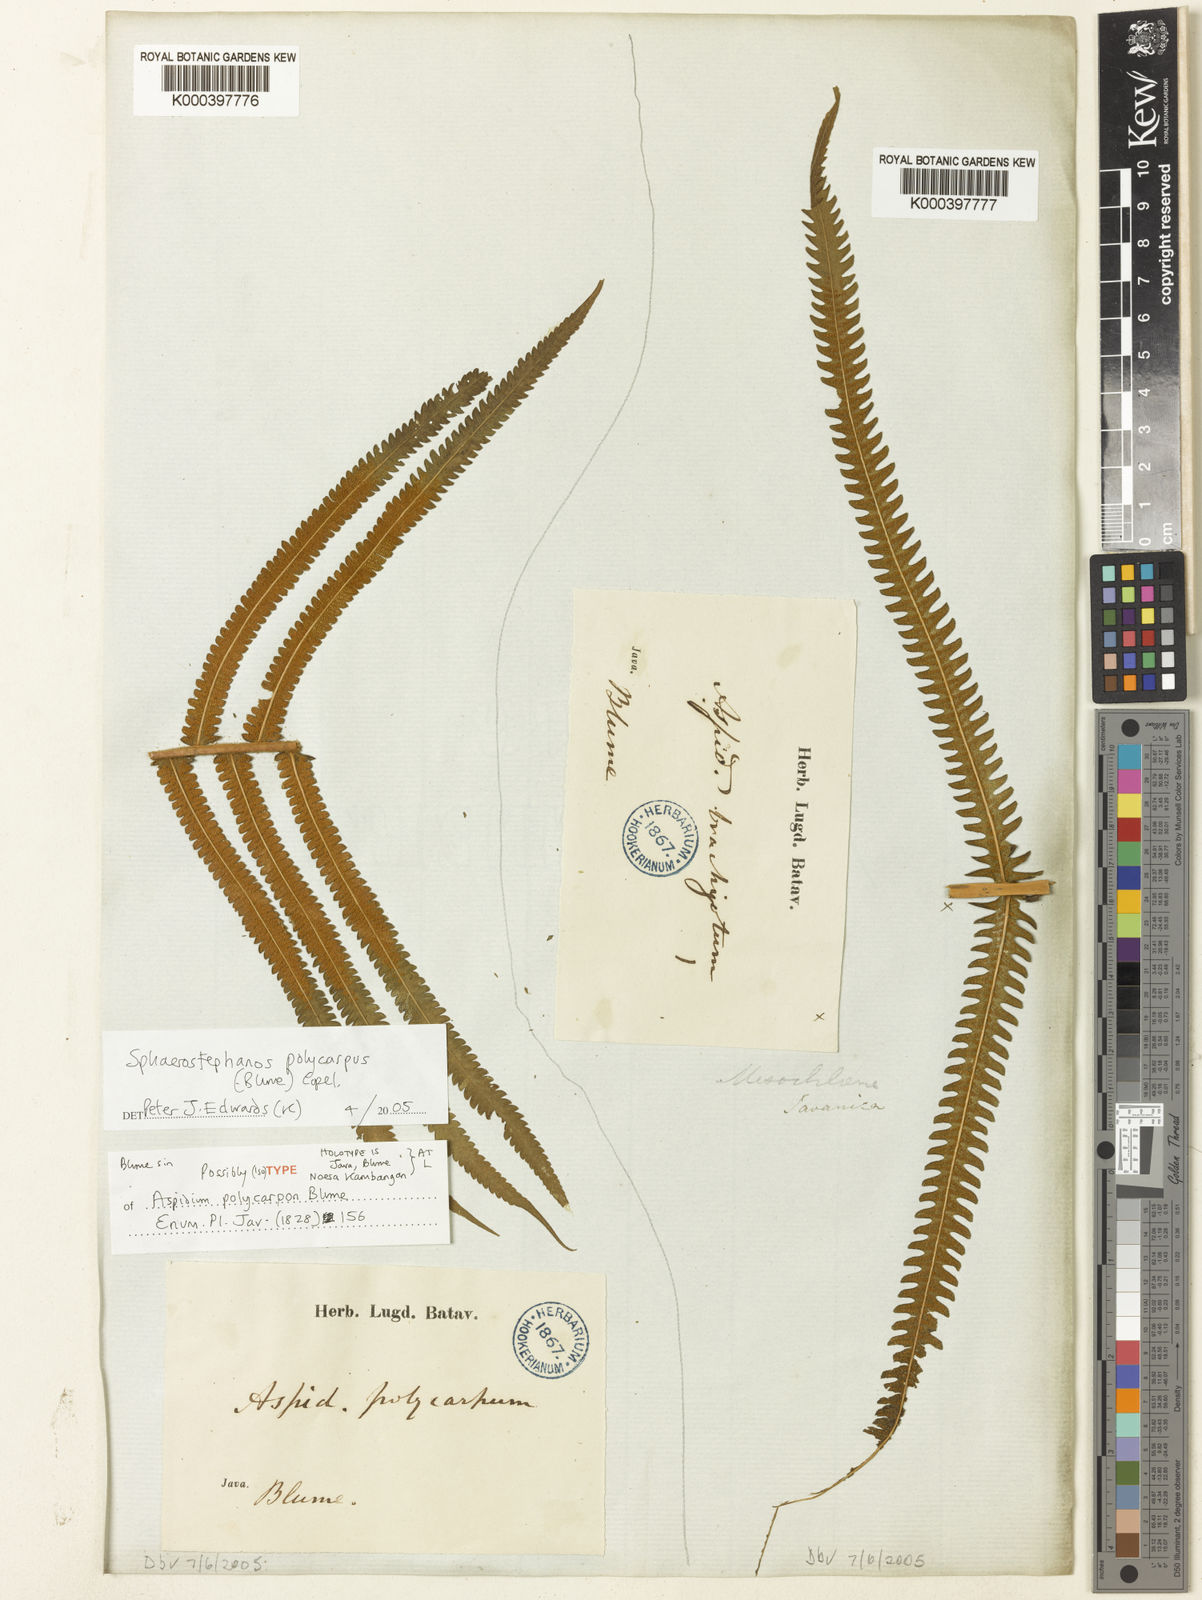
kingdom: Plantae
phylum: Tracheophyta
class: Polypodiopsida
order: Polypodiales
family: Thelypteridaceae
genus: Sphaerostephanos
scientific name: Sphaerostephanos polycarpos
